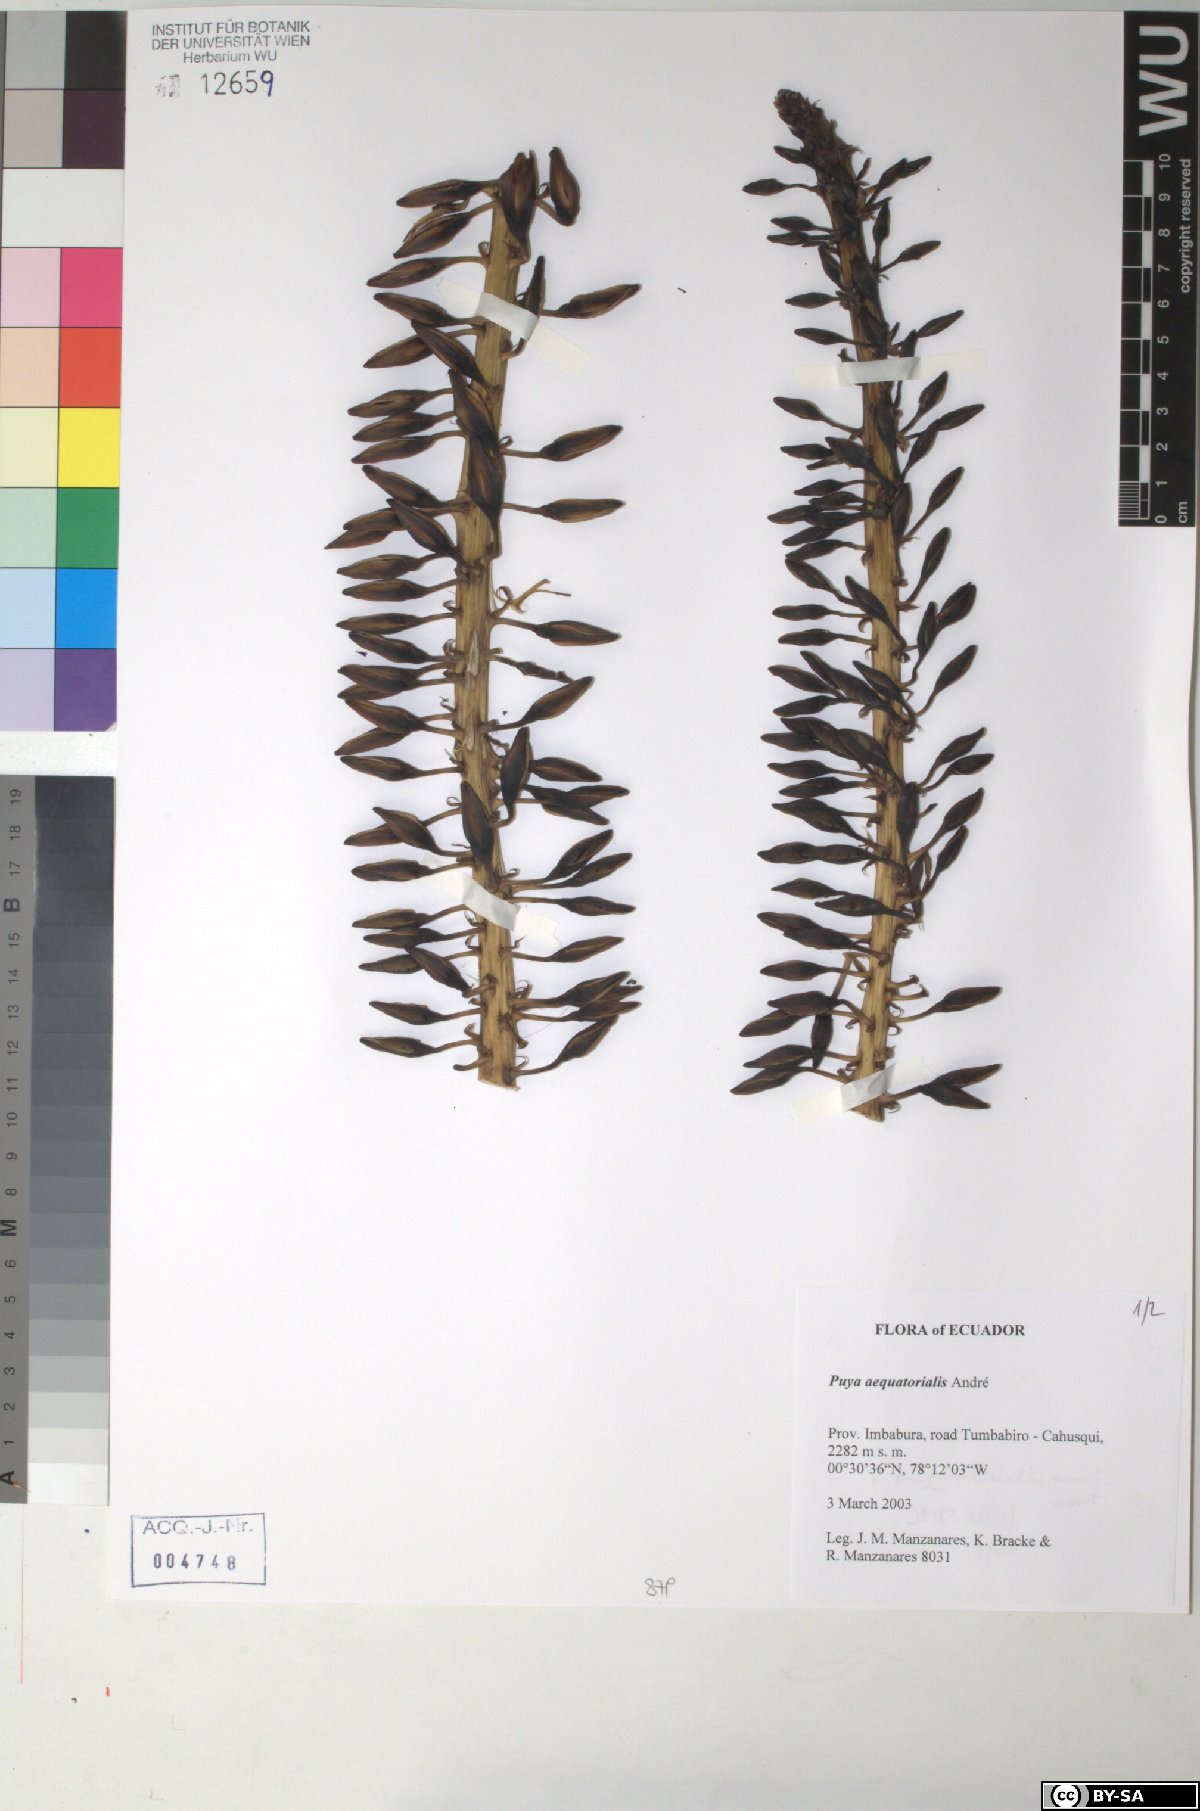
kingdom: Plantae
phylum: Tracheophyta
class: Liliopsida
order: Poales
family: Bromeliaceae
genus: Puya
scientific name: Puya aequatorialis
